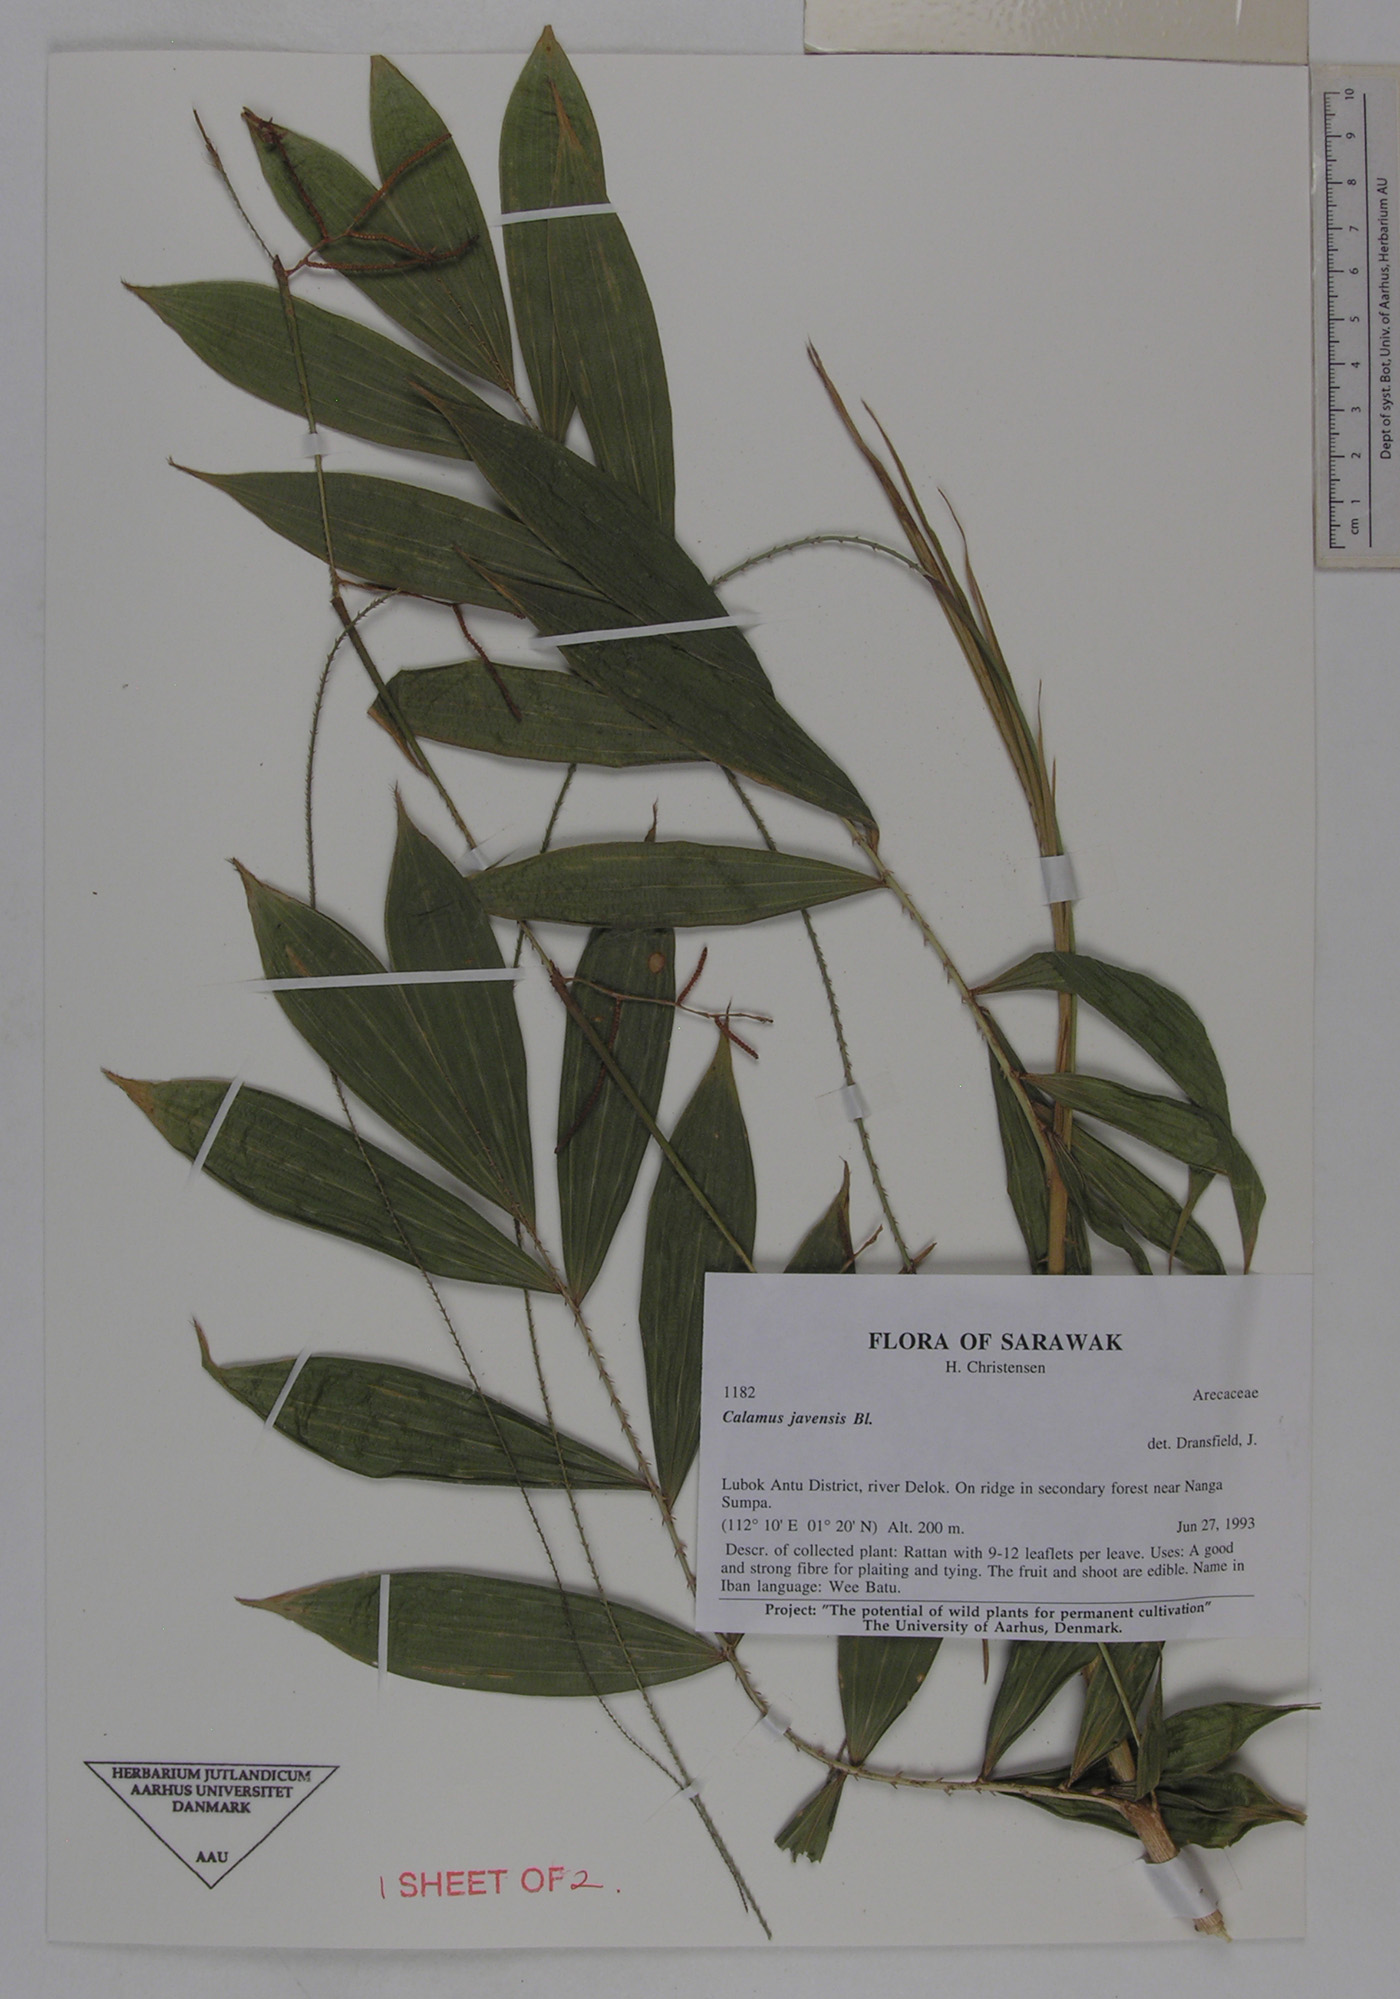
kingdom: Plantae
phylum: Tracheophyta
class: Liliopsida
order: Arecales
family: Arecaceae
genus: Calamus
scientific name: Calamus javensis
